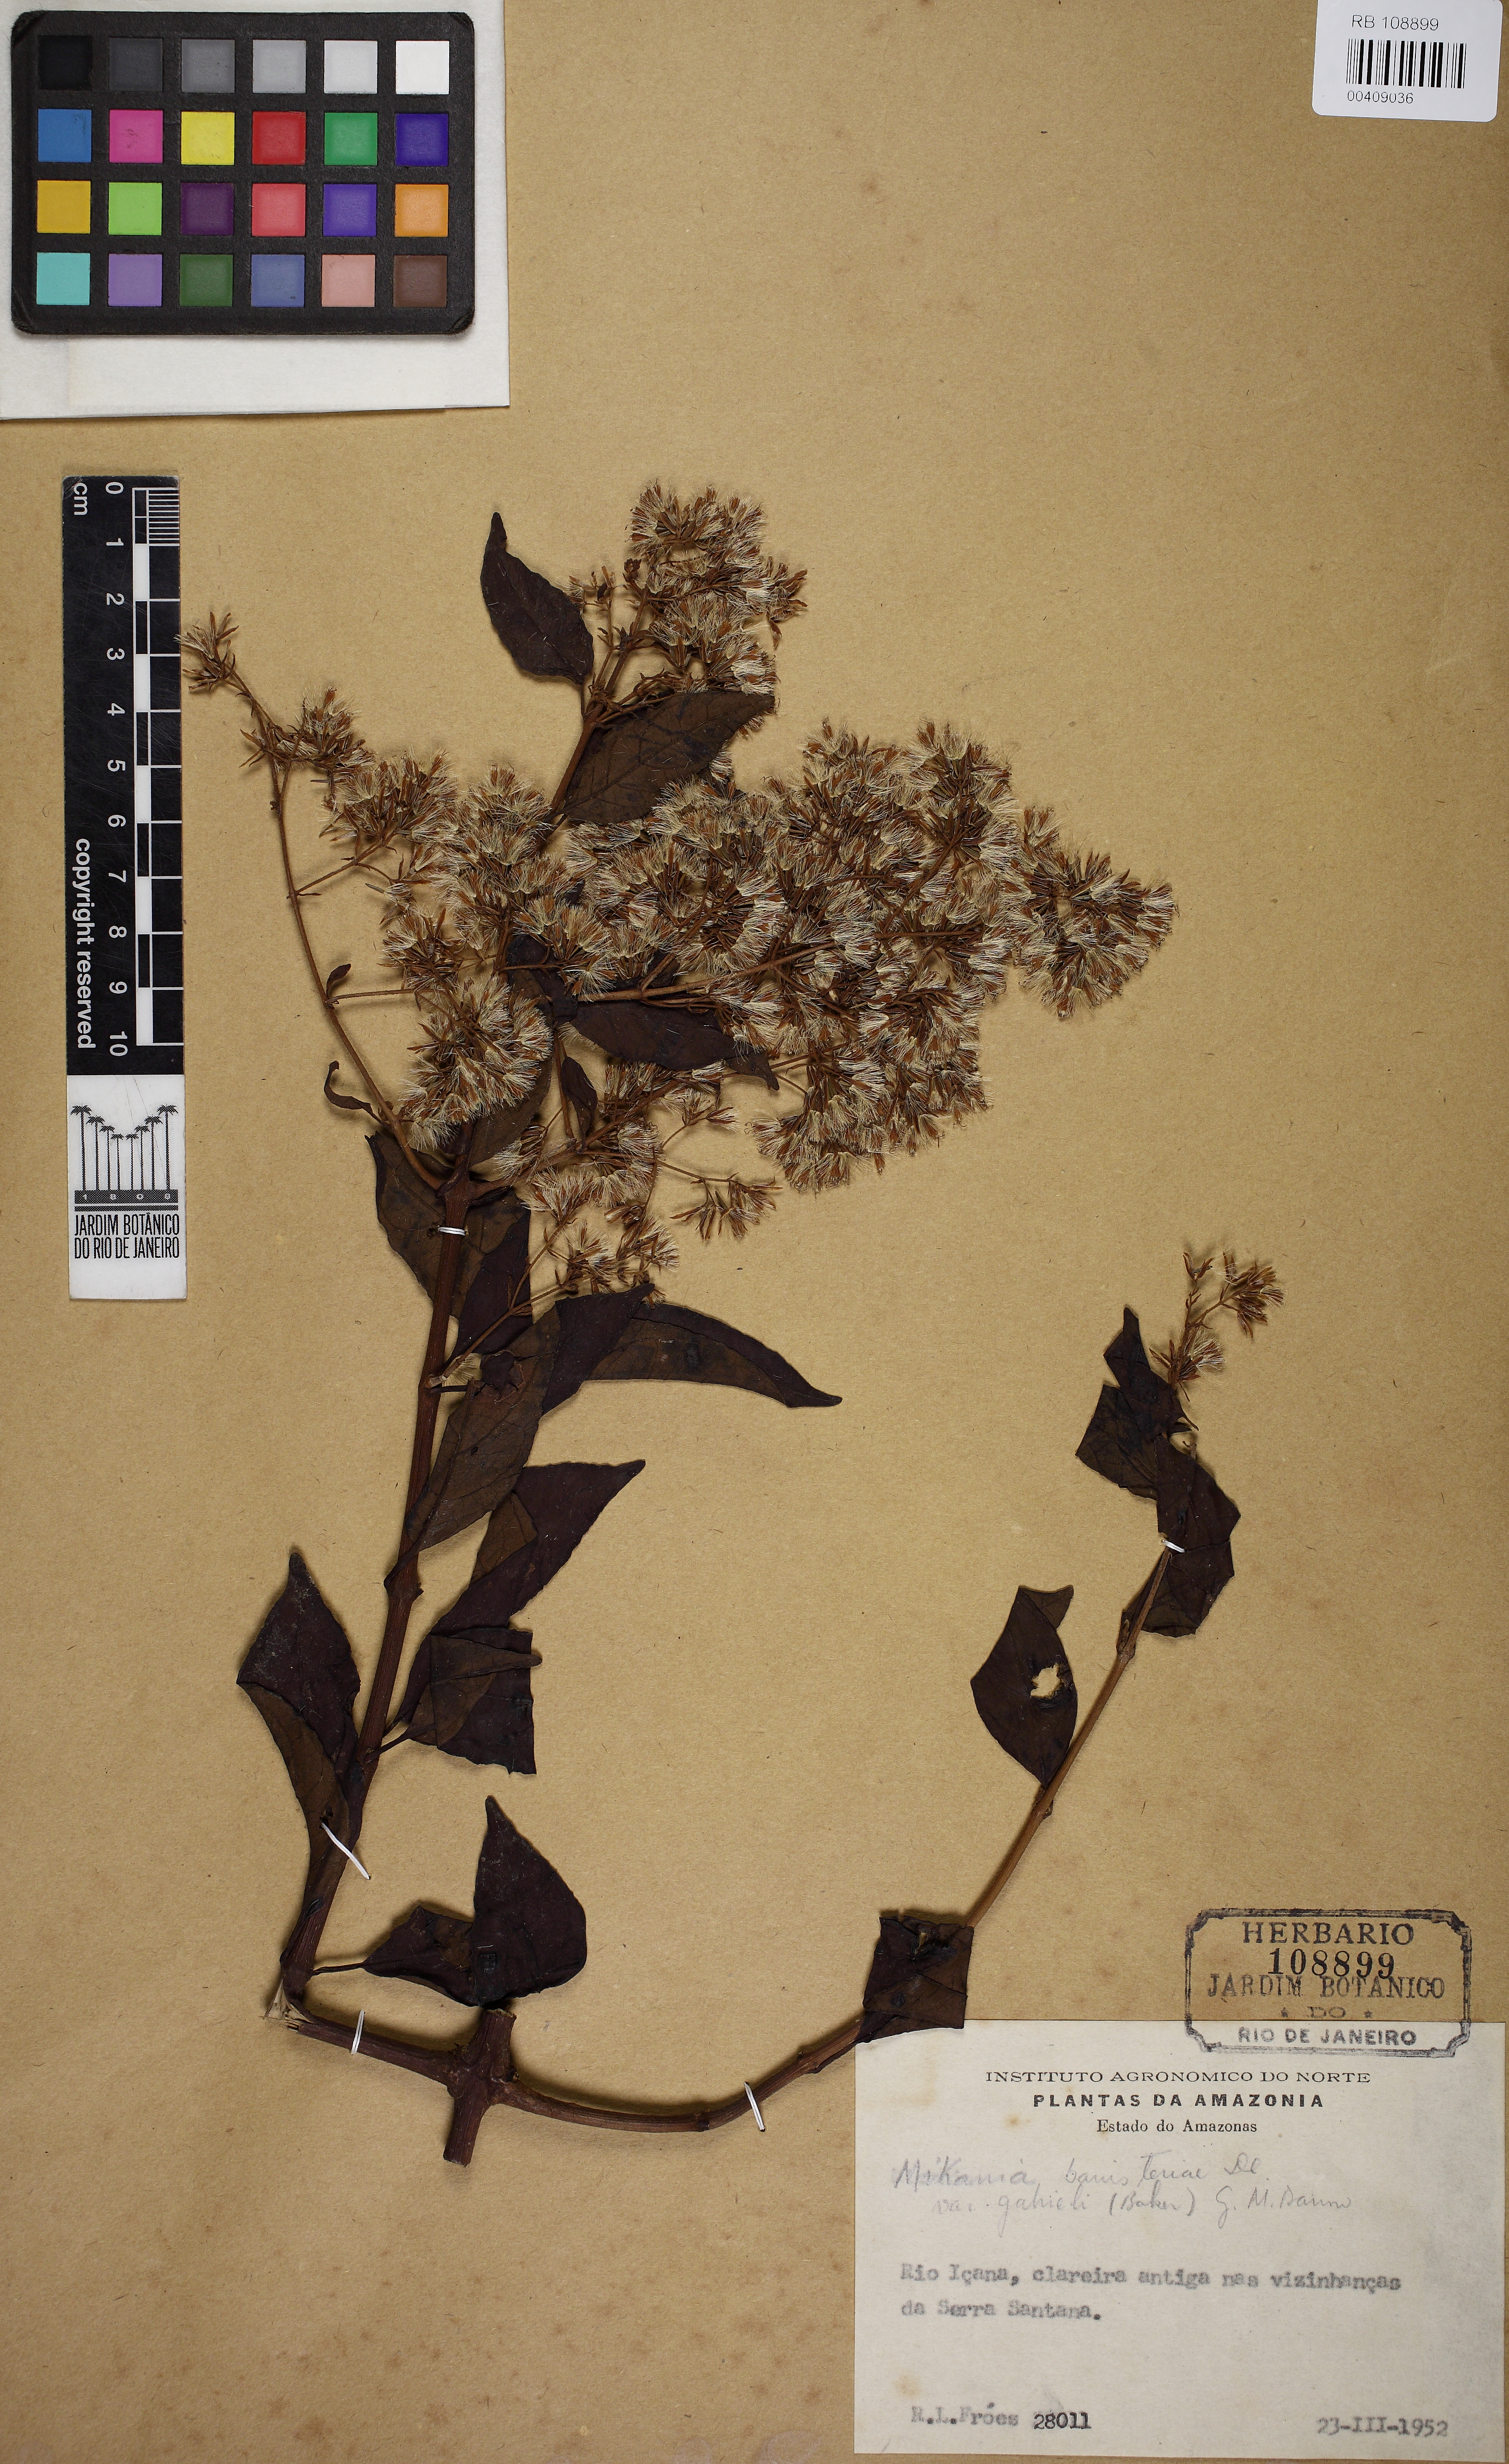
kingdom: Plantae
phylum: Tracheophyta
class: Magnoliopsida
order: Asterales
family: Asteraceae
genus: Mikania
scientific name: Mikania banisteriae
